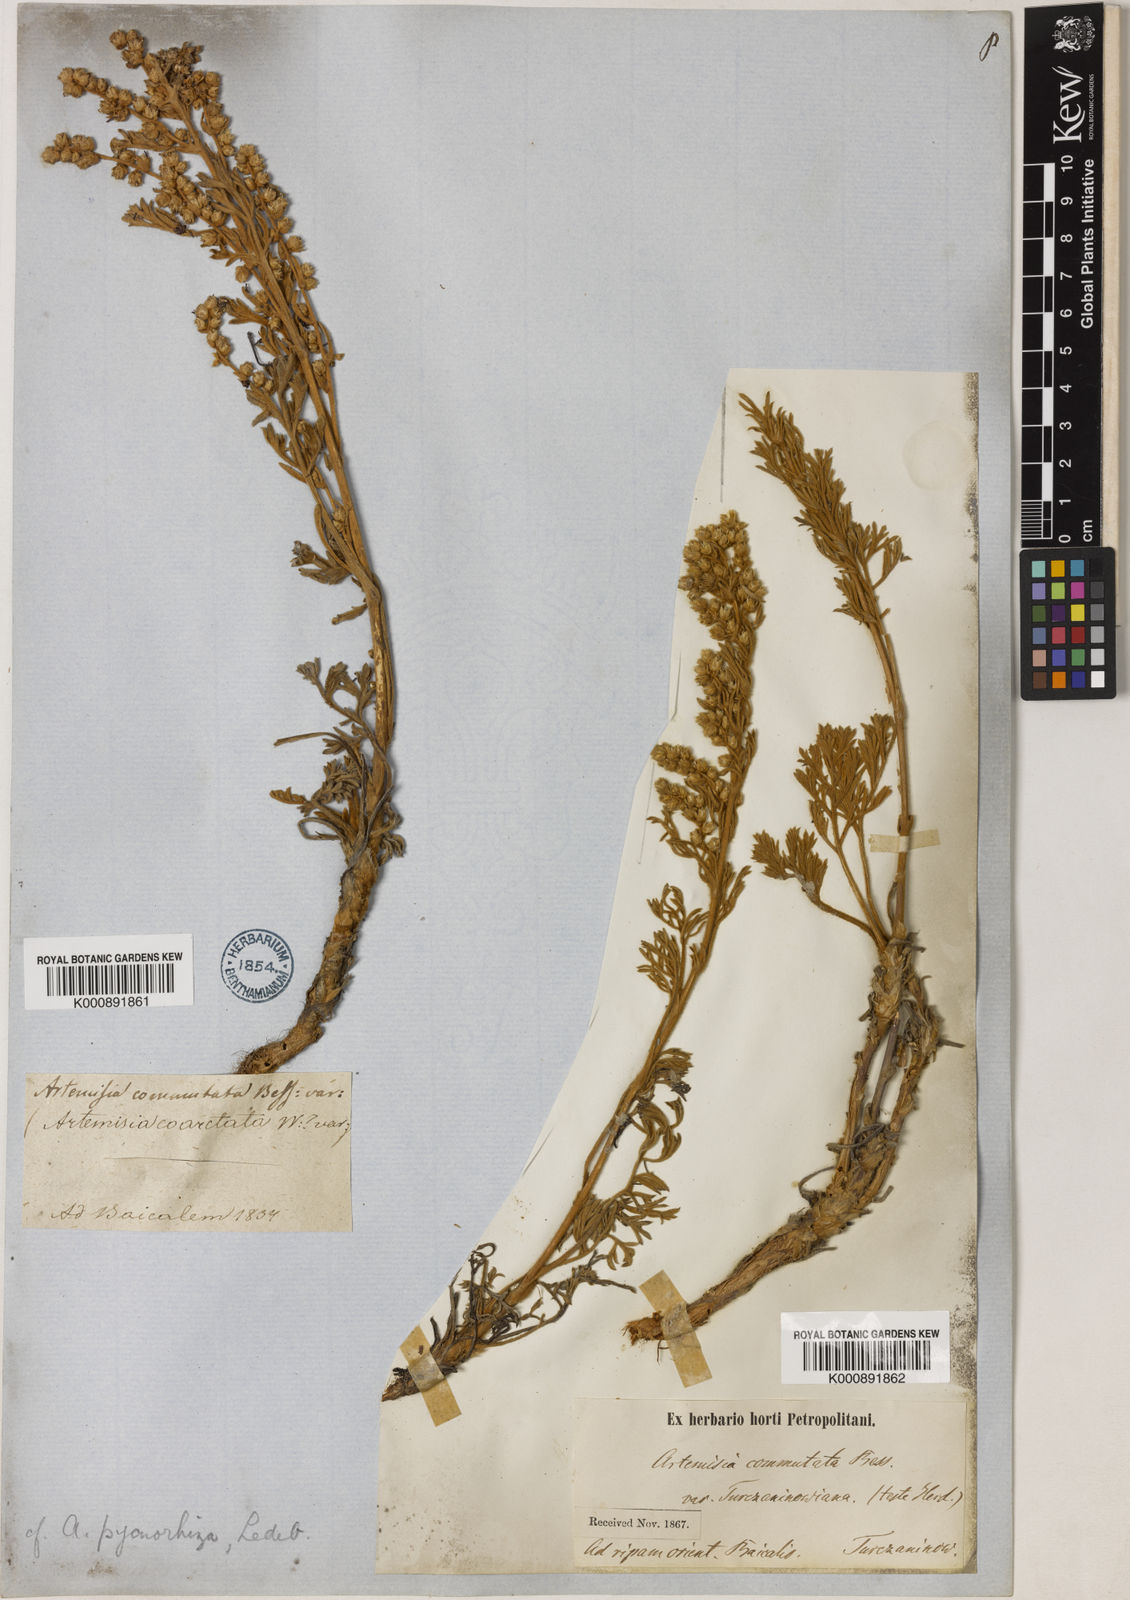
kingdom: Plantae
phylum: Tracheophyta
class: Magnoliopsida
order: Asterales
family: Asteraceae
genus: Artemisia
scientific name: Artemisia pycnorrhiza
